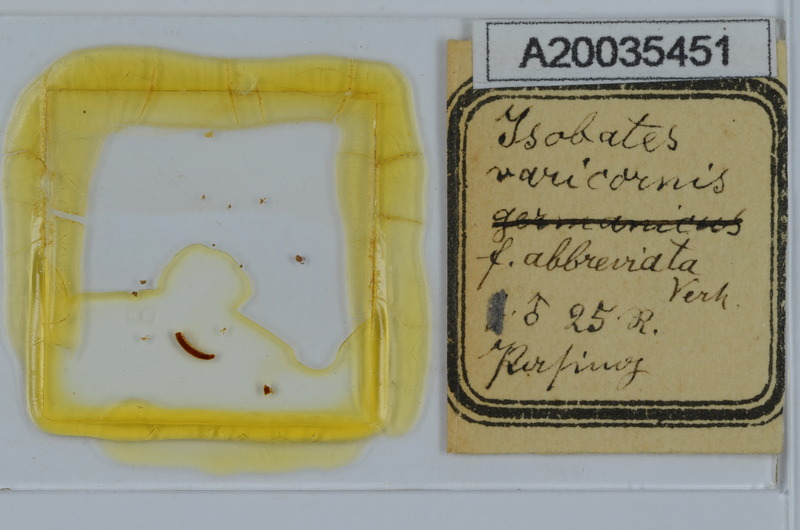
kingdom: Animalia
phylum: Arthropoda
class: Diplopoda
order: Julida
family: Nemasomatidae
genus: Thalassisobates
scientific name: Thalassisobates littoralis
